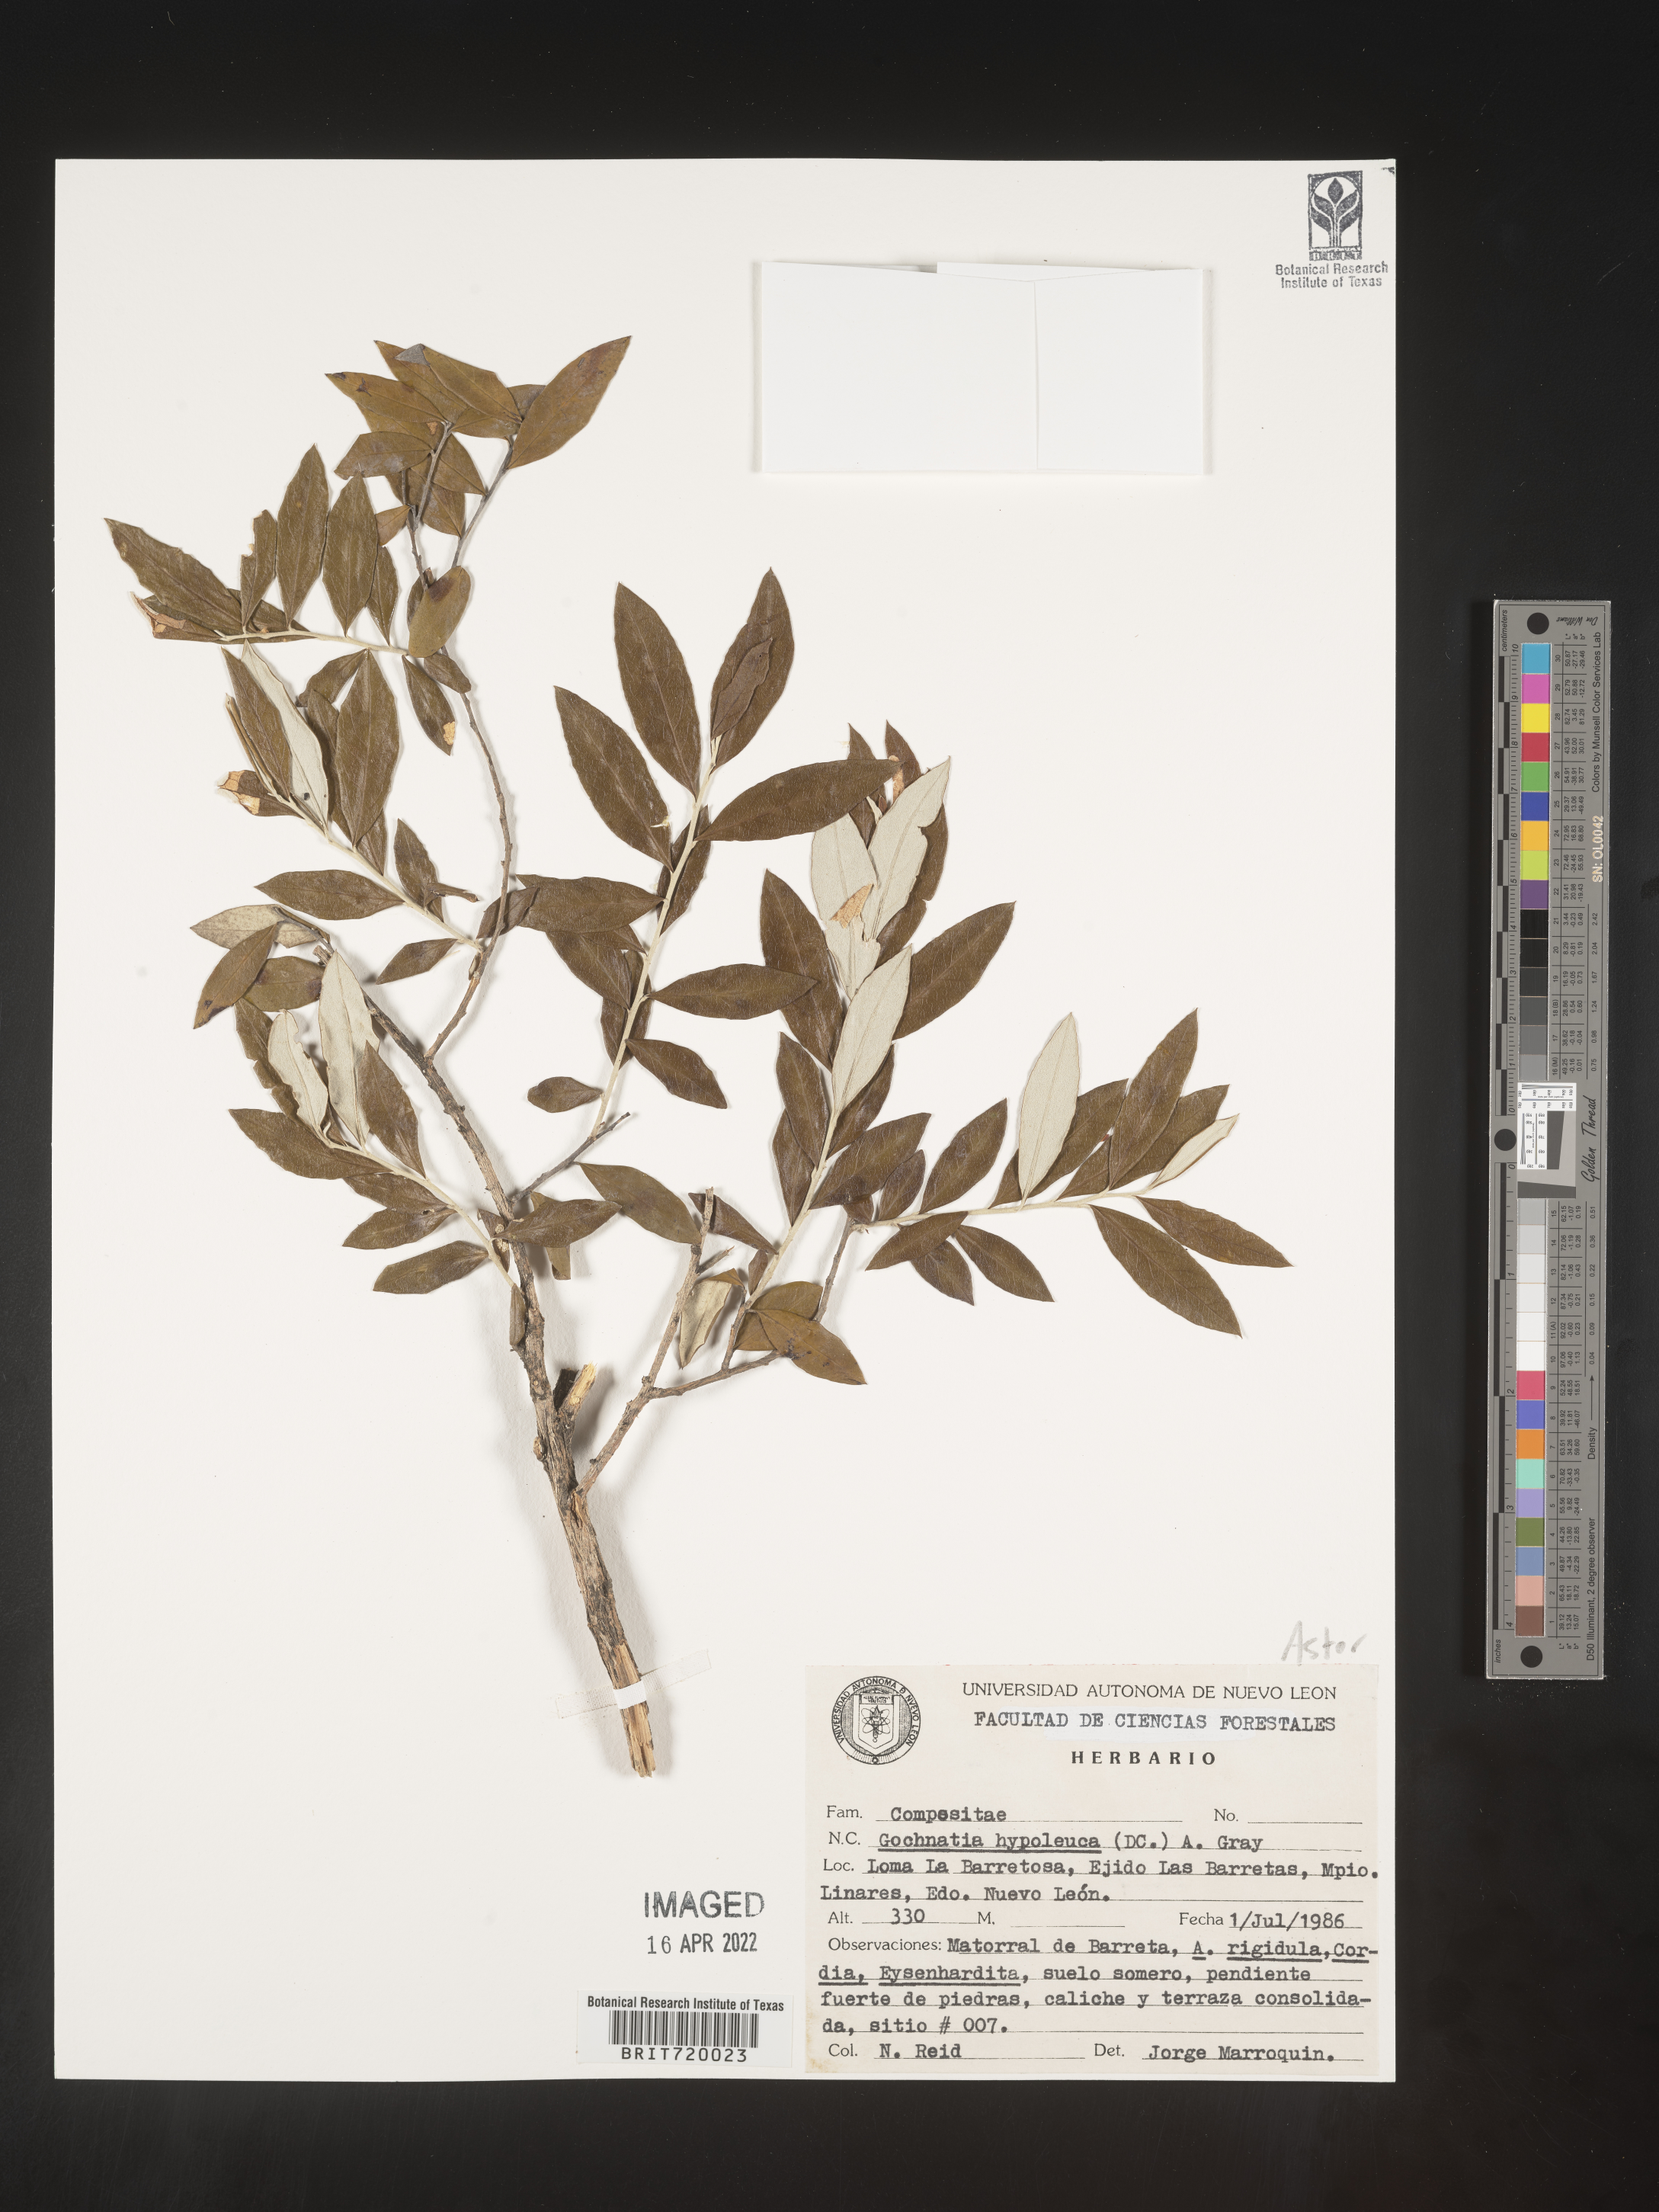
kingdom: Plantae
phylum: Tracheophyta
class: Magnoliopsida
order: Asterales
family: Asteraceae
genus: Gochnatia
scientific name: Gochnatia
